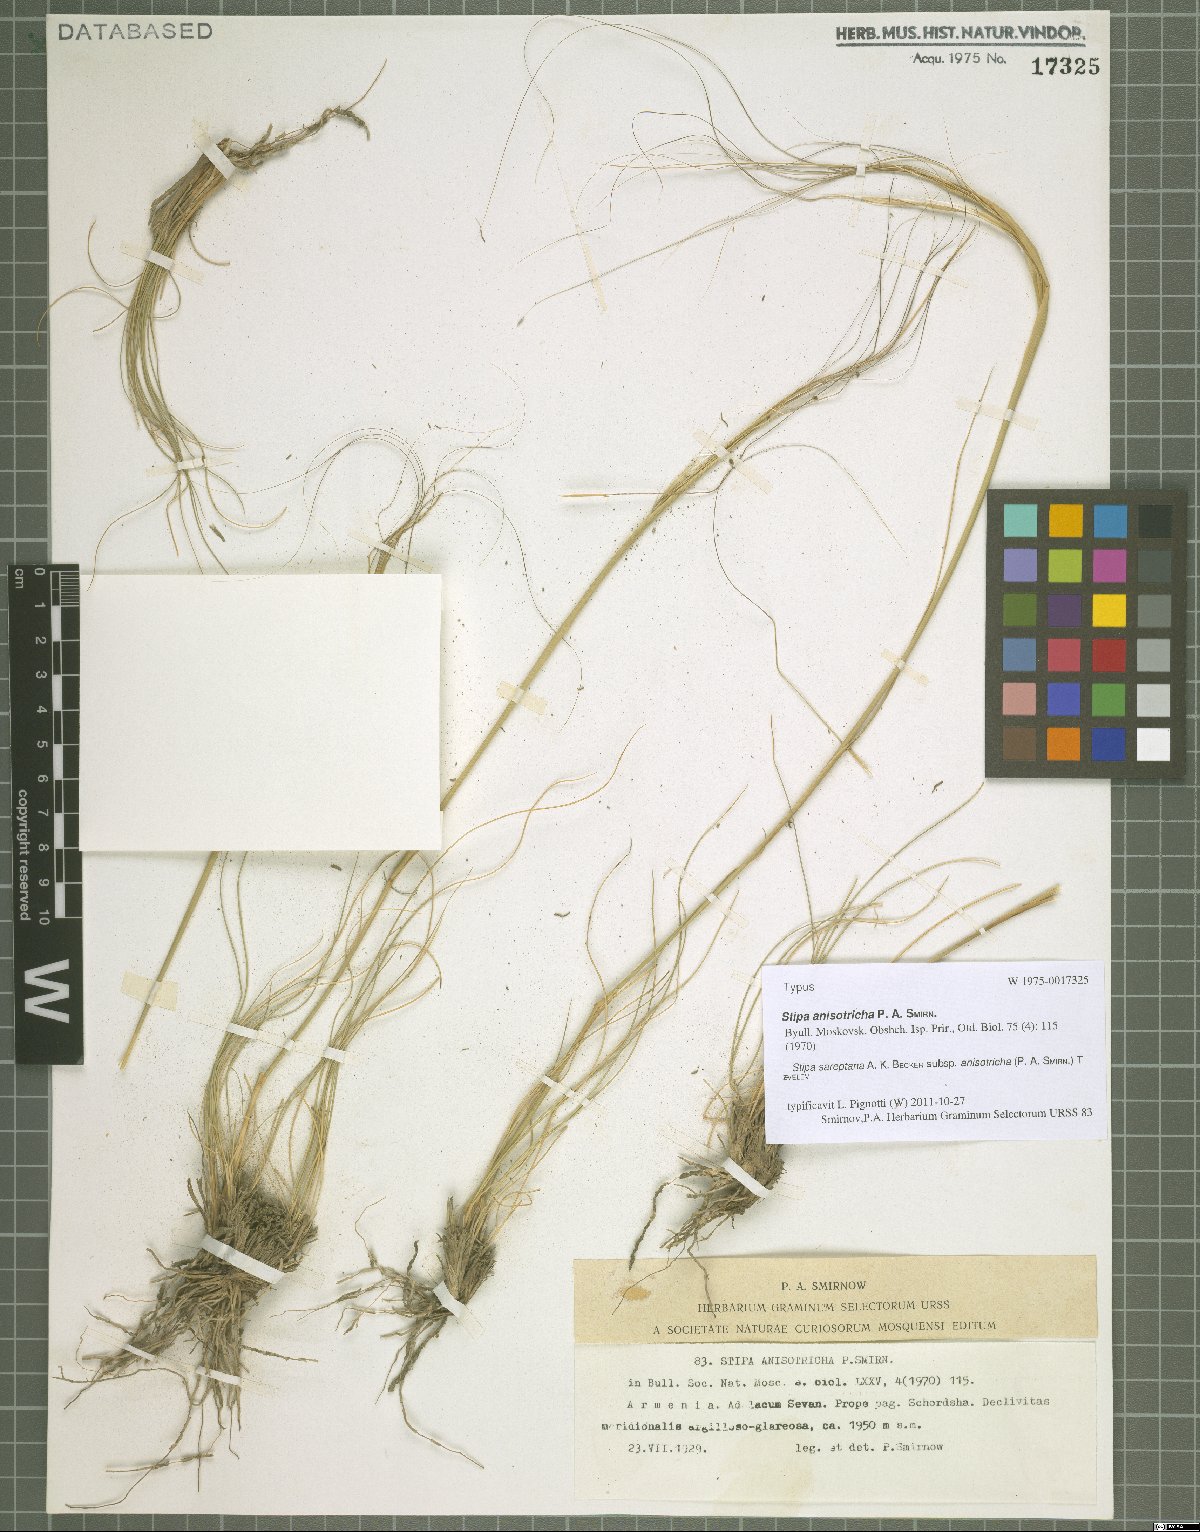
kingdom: Plantae
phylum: Tracheophyta
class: Liliopsida
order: Poales
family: Poaceae
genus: Stipa
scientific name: Stipa sareptana
